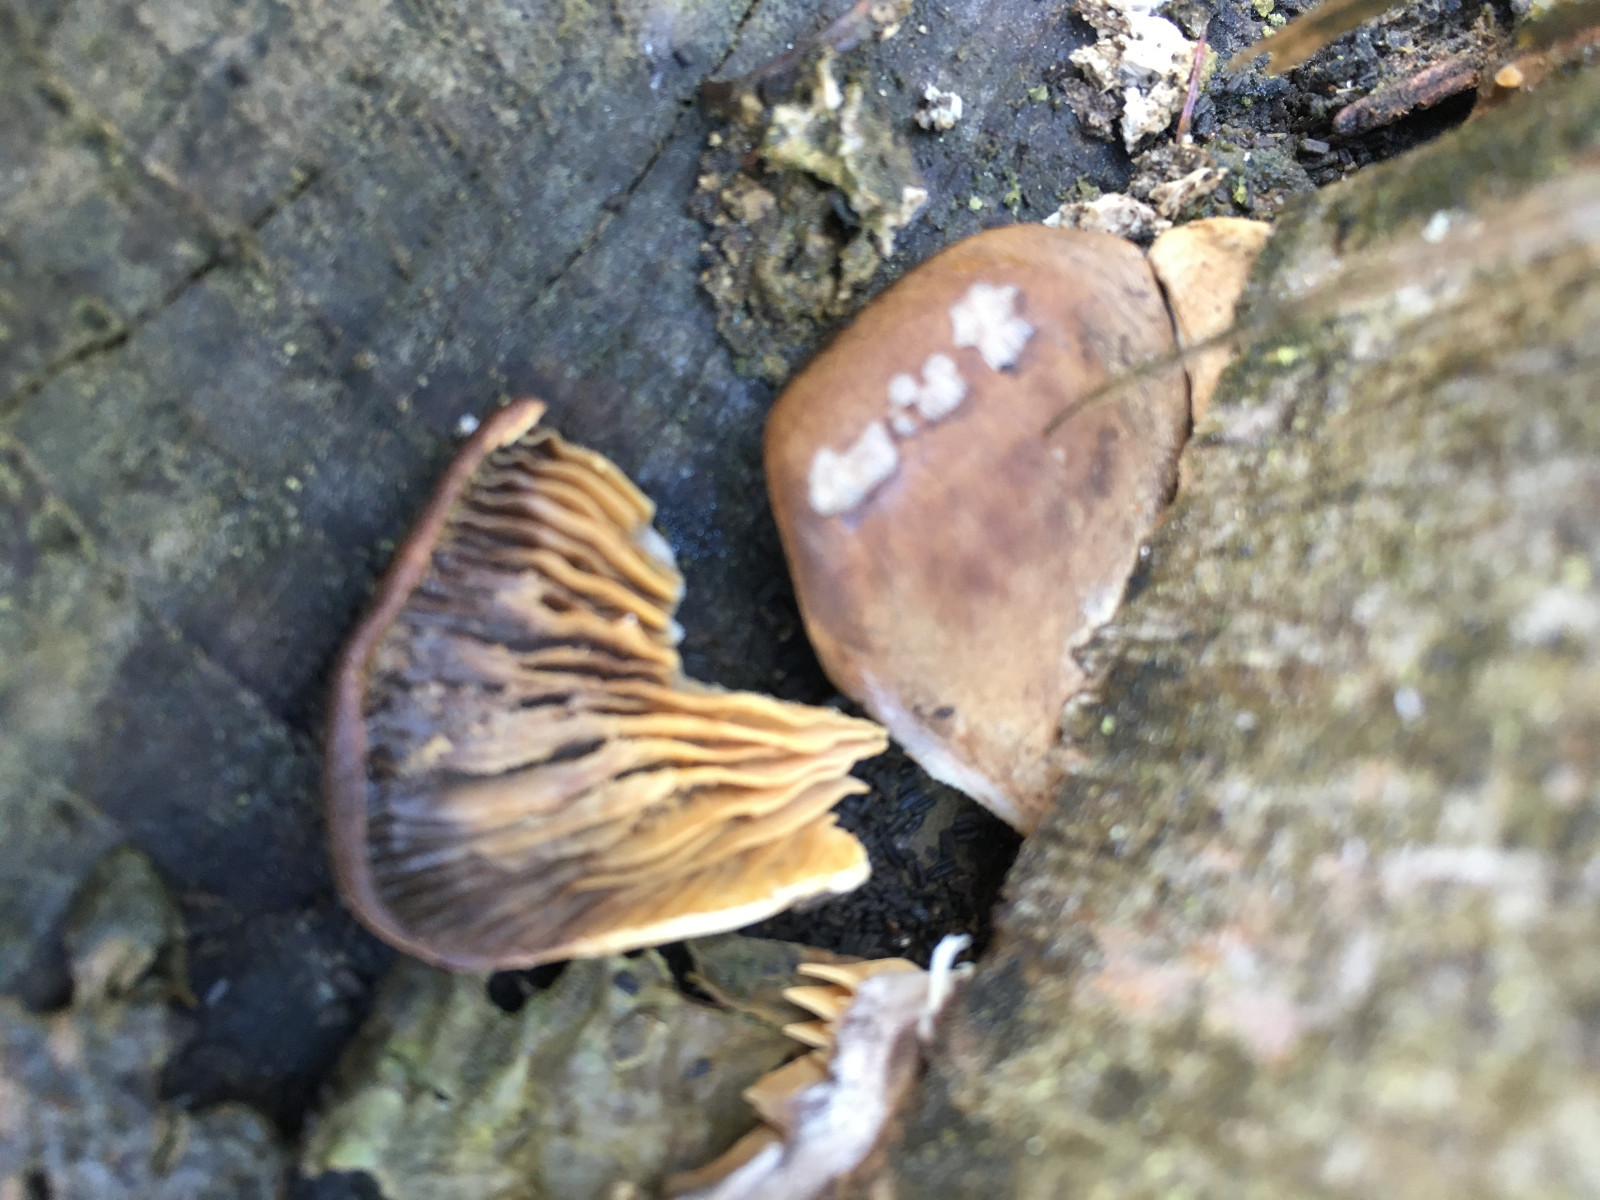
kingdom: Fungi
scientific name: Fungi
